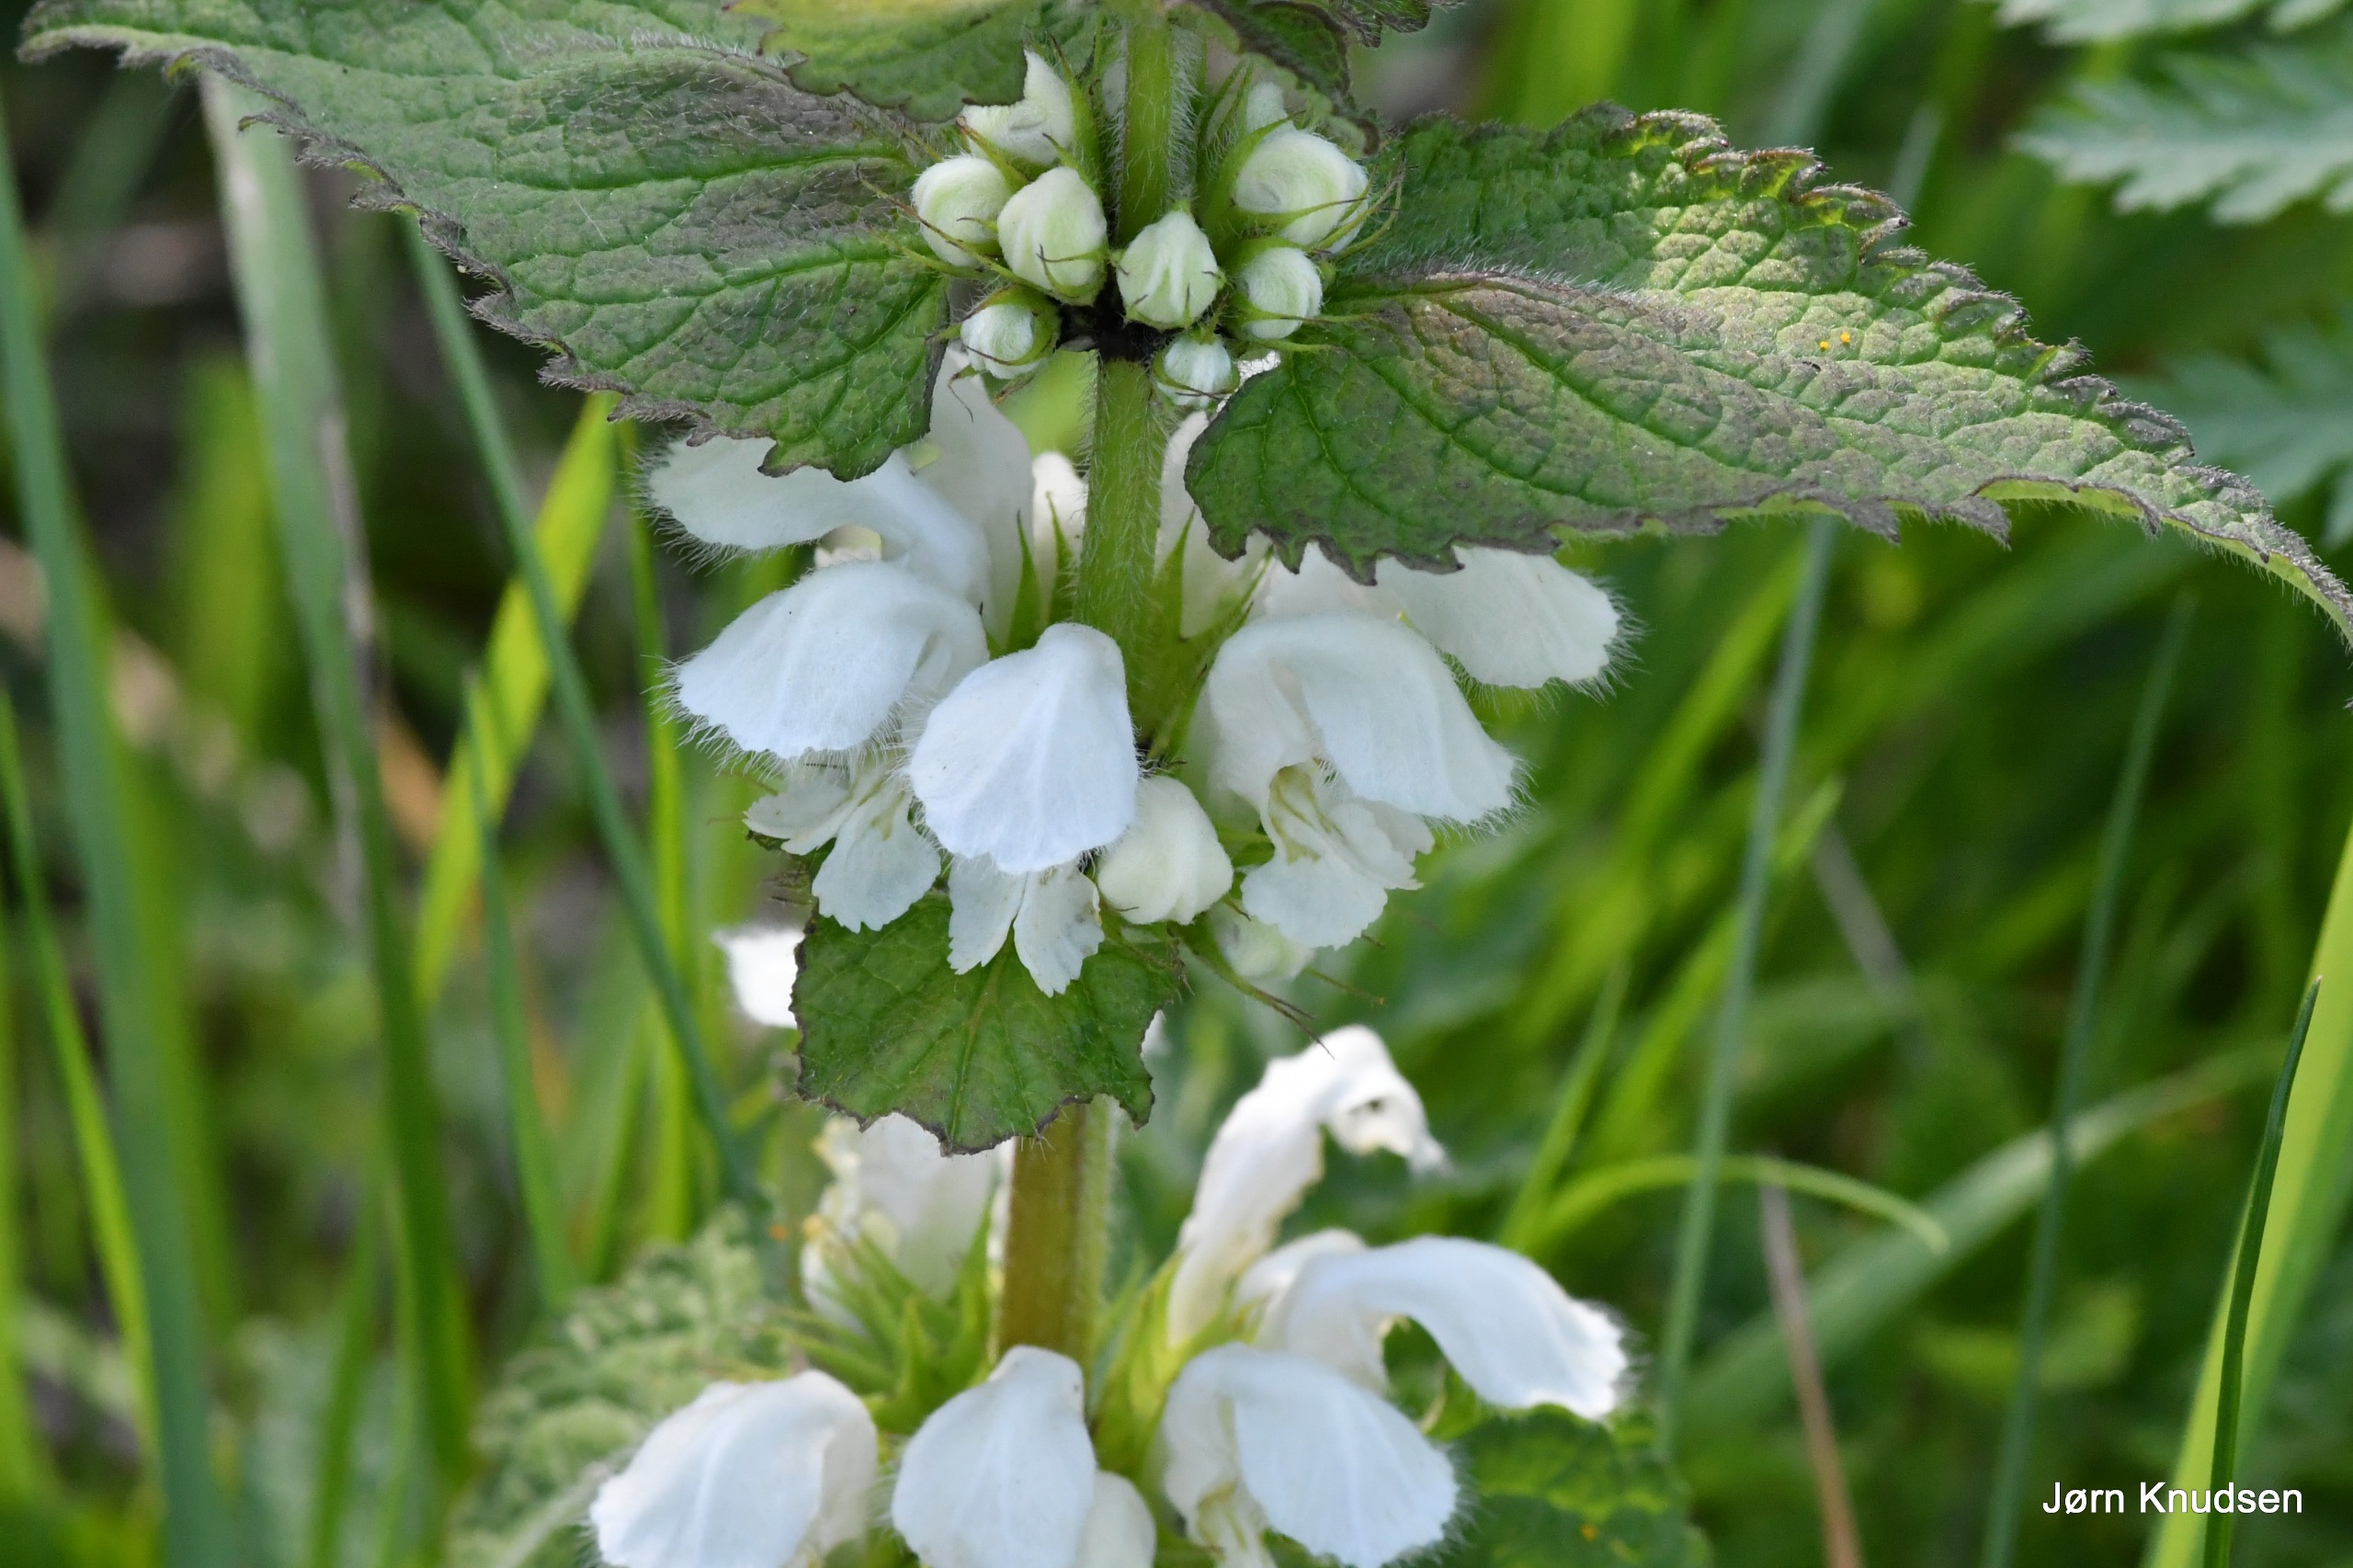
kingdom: Plantae
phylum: Tracheophyta
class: Magnoliopsida
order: Lamiales
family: Lamiaceae
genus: Lamium
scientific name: Lamium album
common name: Døvnælde
